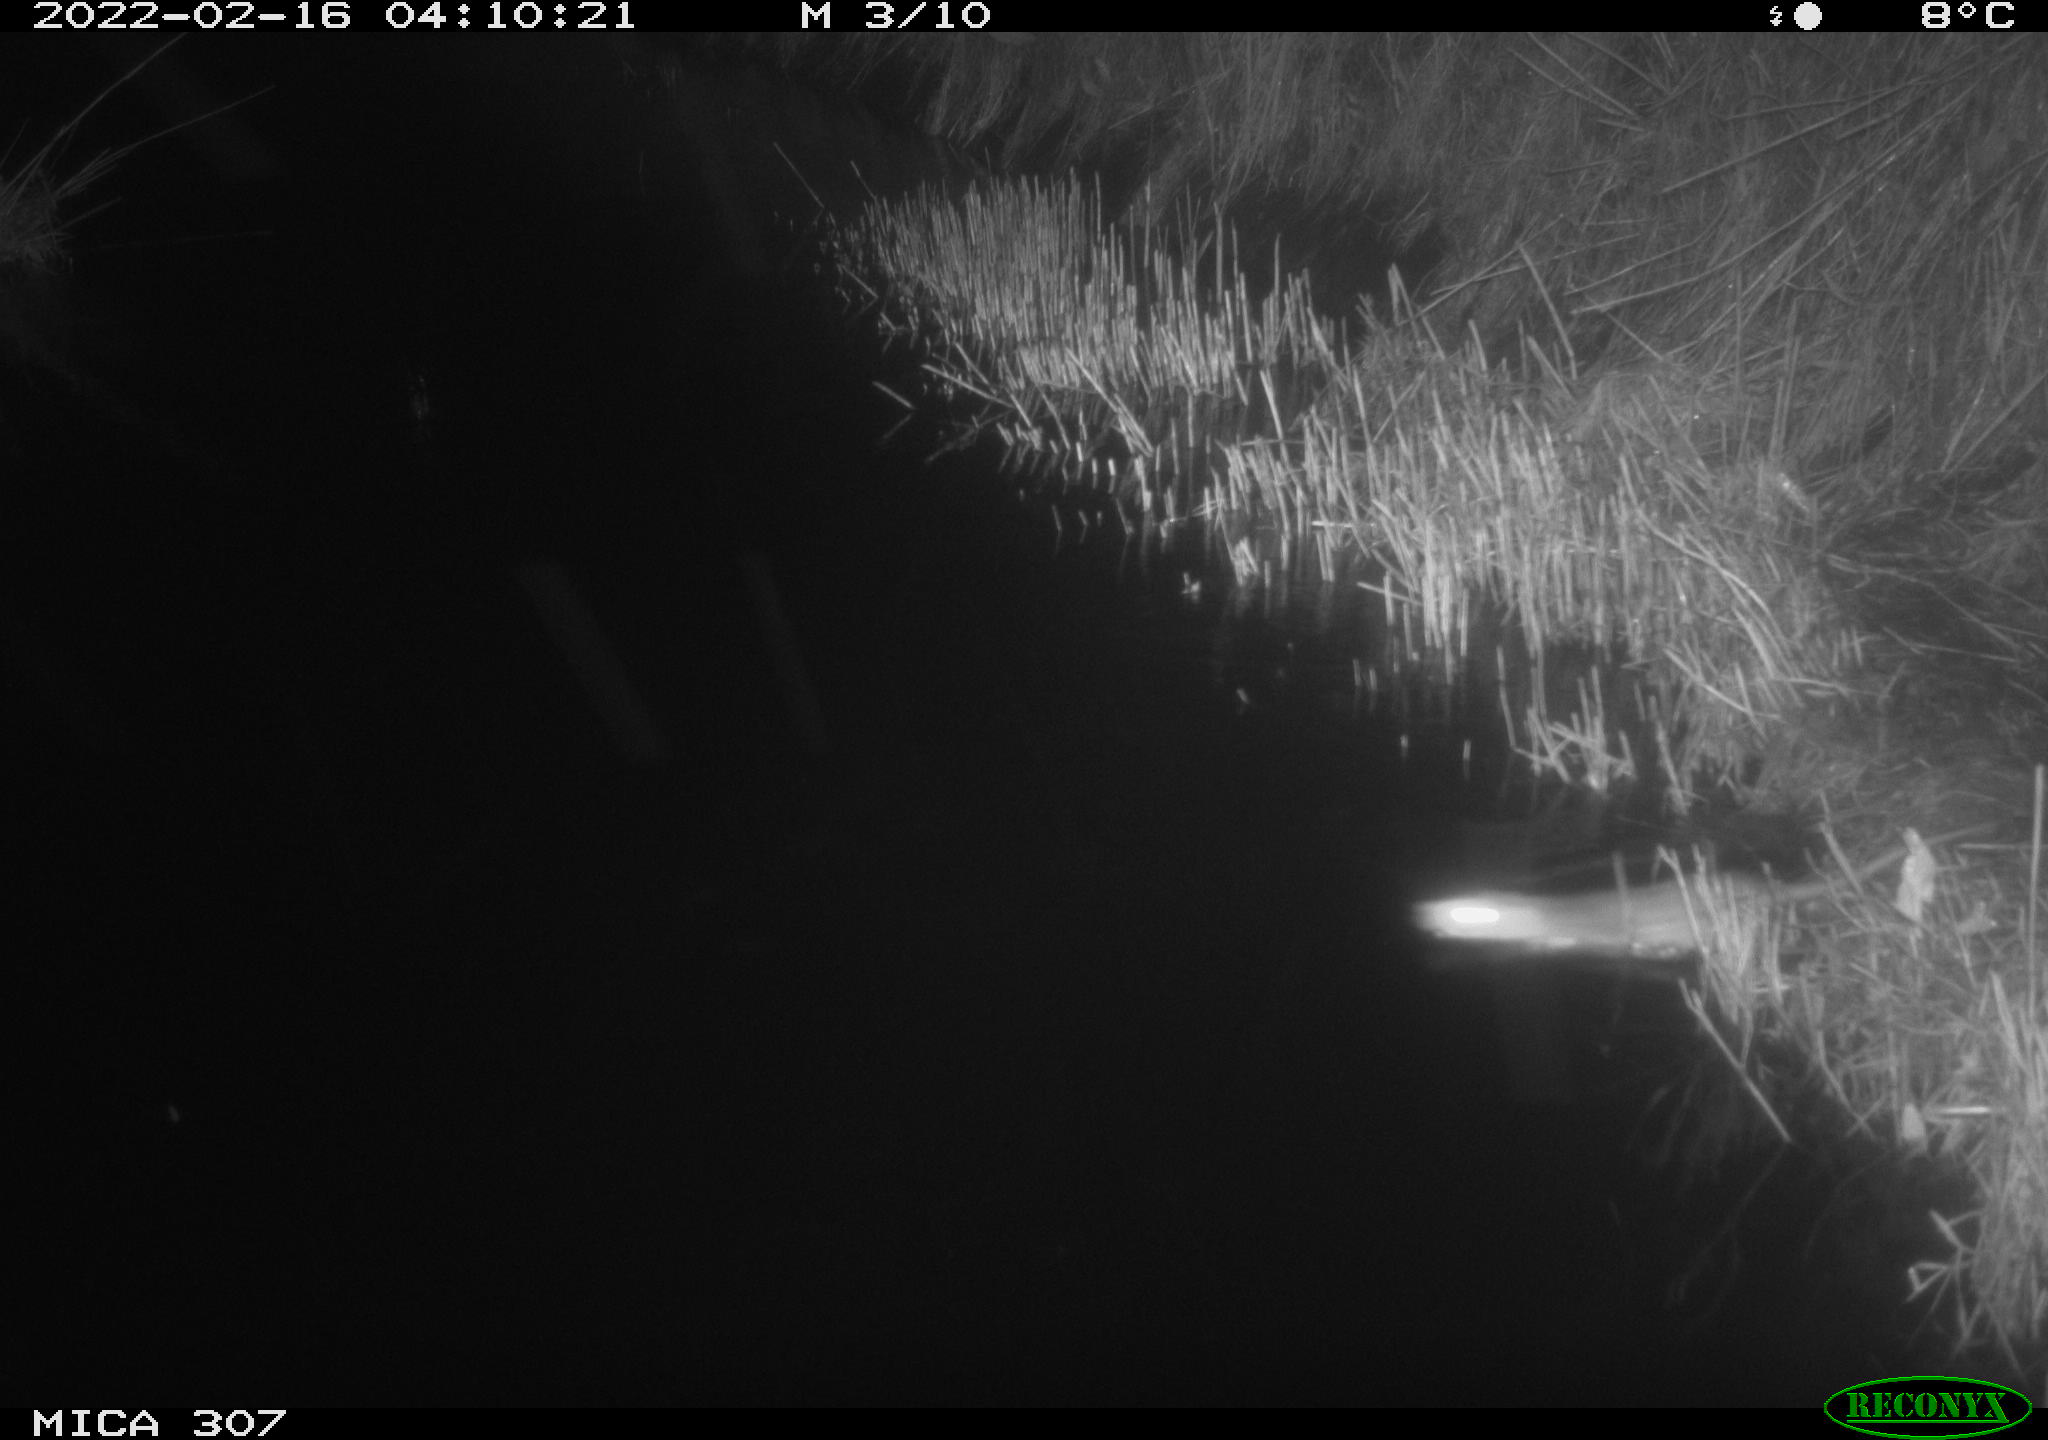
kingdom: Animalia
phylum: Chordata
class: Mammalia
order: Rodentia
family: Muridae
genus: Rattus
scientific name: Rattus norvegicus
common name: Brown rat
